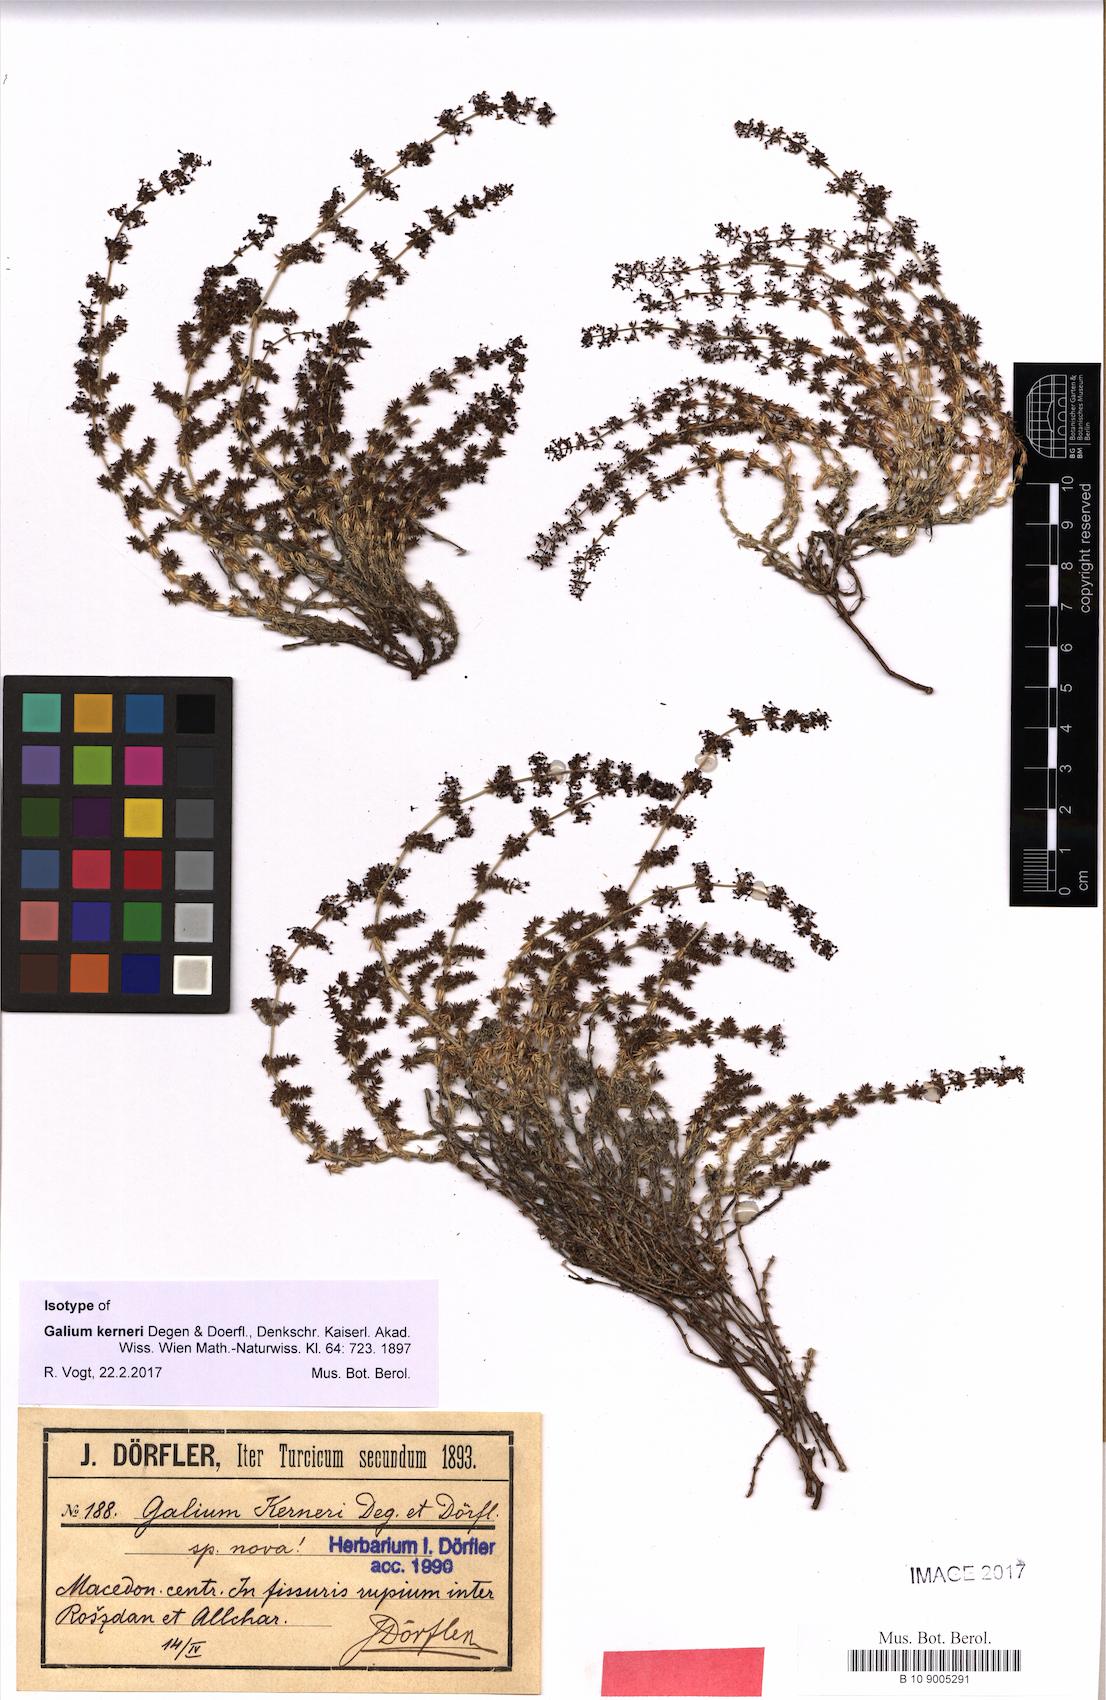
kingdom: Plantae
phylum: Tracheophyta
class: Magnoliopsida
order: Gentianales
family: Rubiaceae
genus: Galium
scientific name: Galium kerneri
